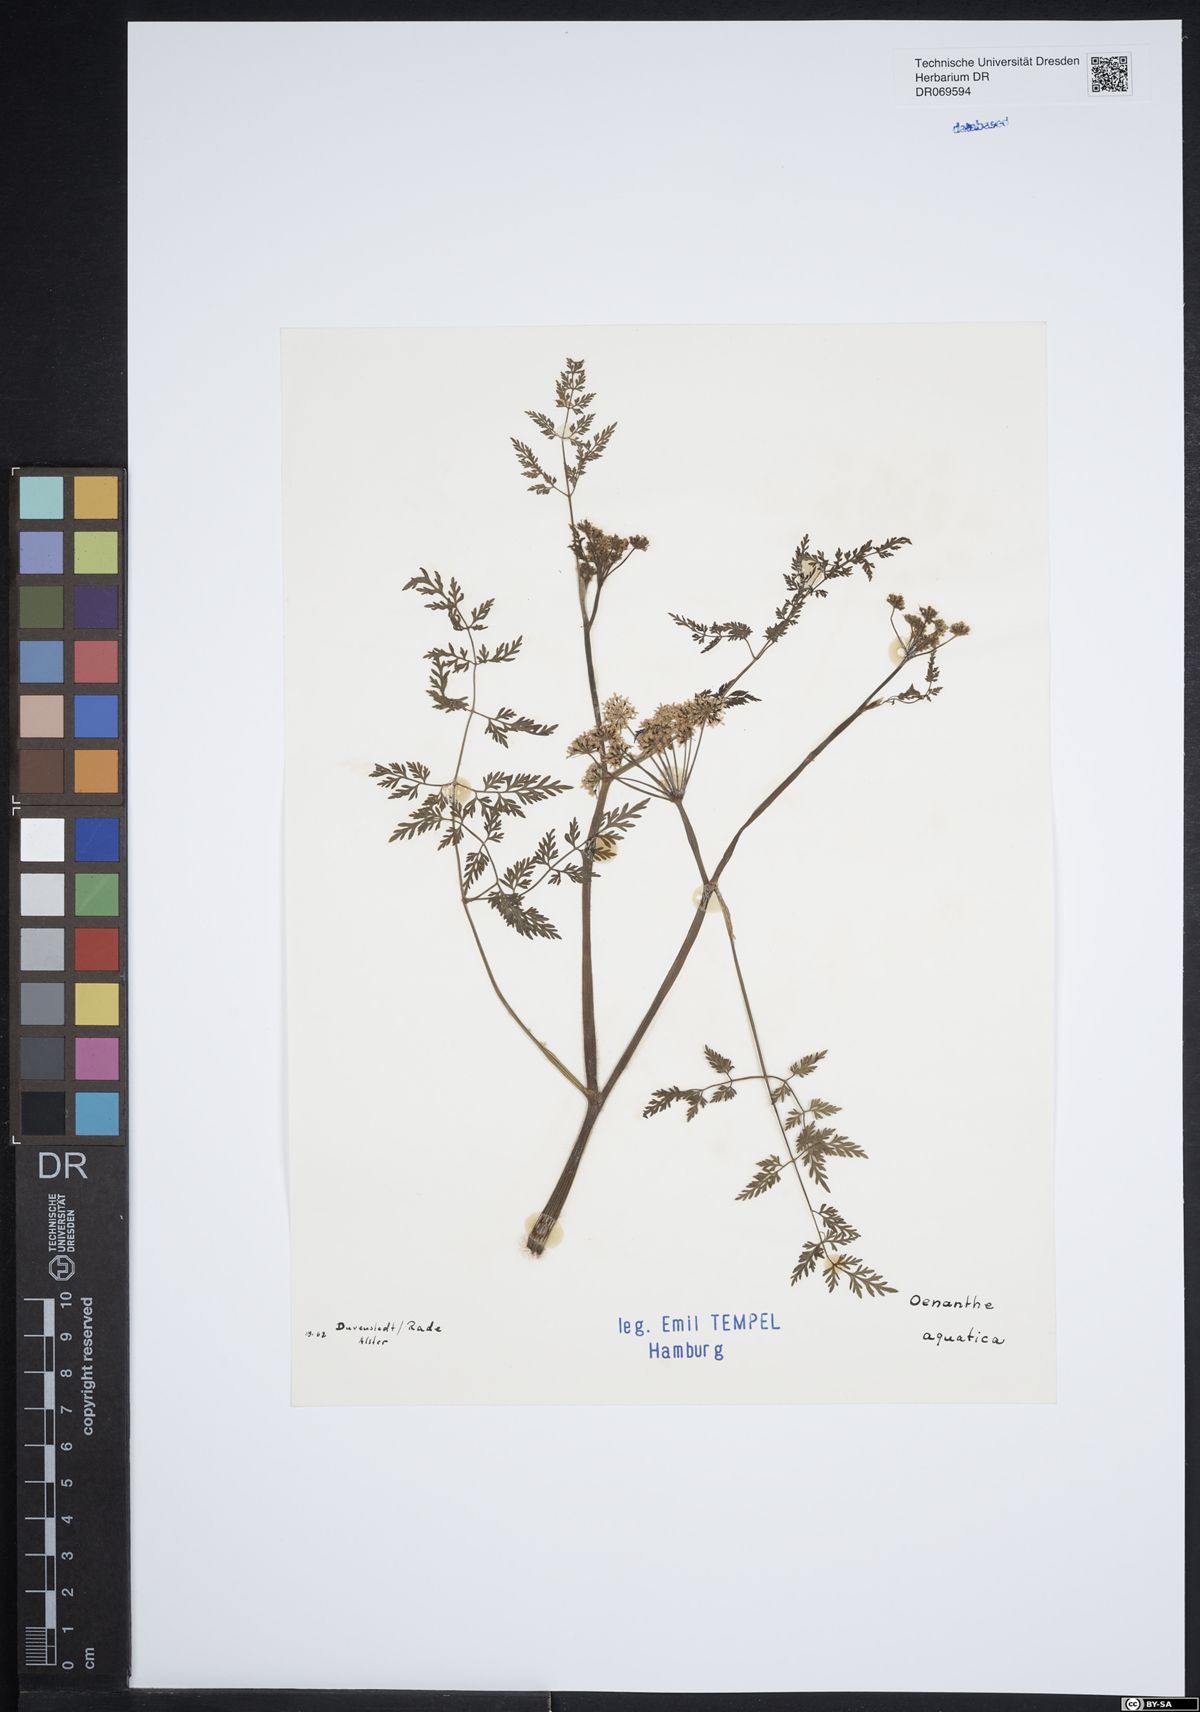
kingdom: Plantae
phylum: Tracheophyta
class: Magnoliopsida
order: Apiales
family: Apiaceae
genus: Oenanthe
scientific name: Oenanthe aquatica
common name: Fine-leaved water-dropwort
